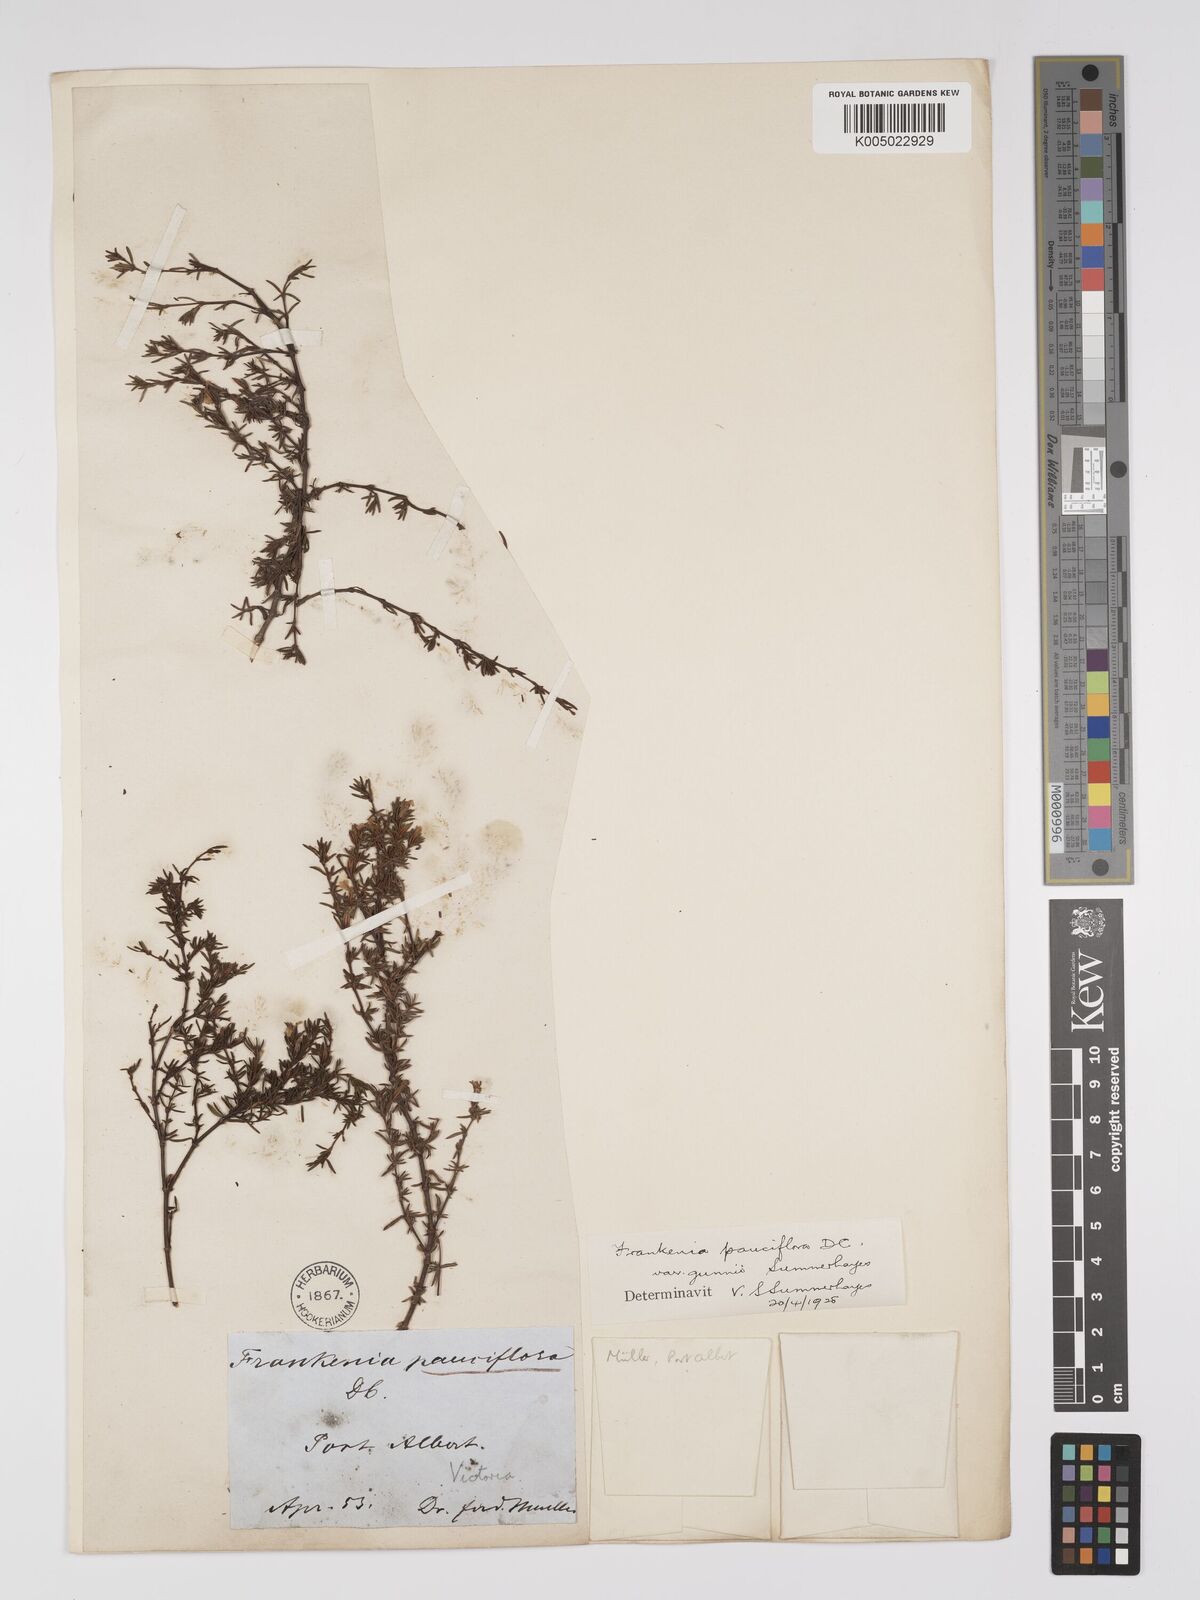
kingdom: Plantae
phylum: Tracheophyta
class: Magnoliopsida
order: Caryophyllales
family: Frankeniaceae
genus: Frankenia
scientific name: Frankenia pauciflora
